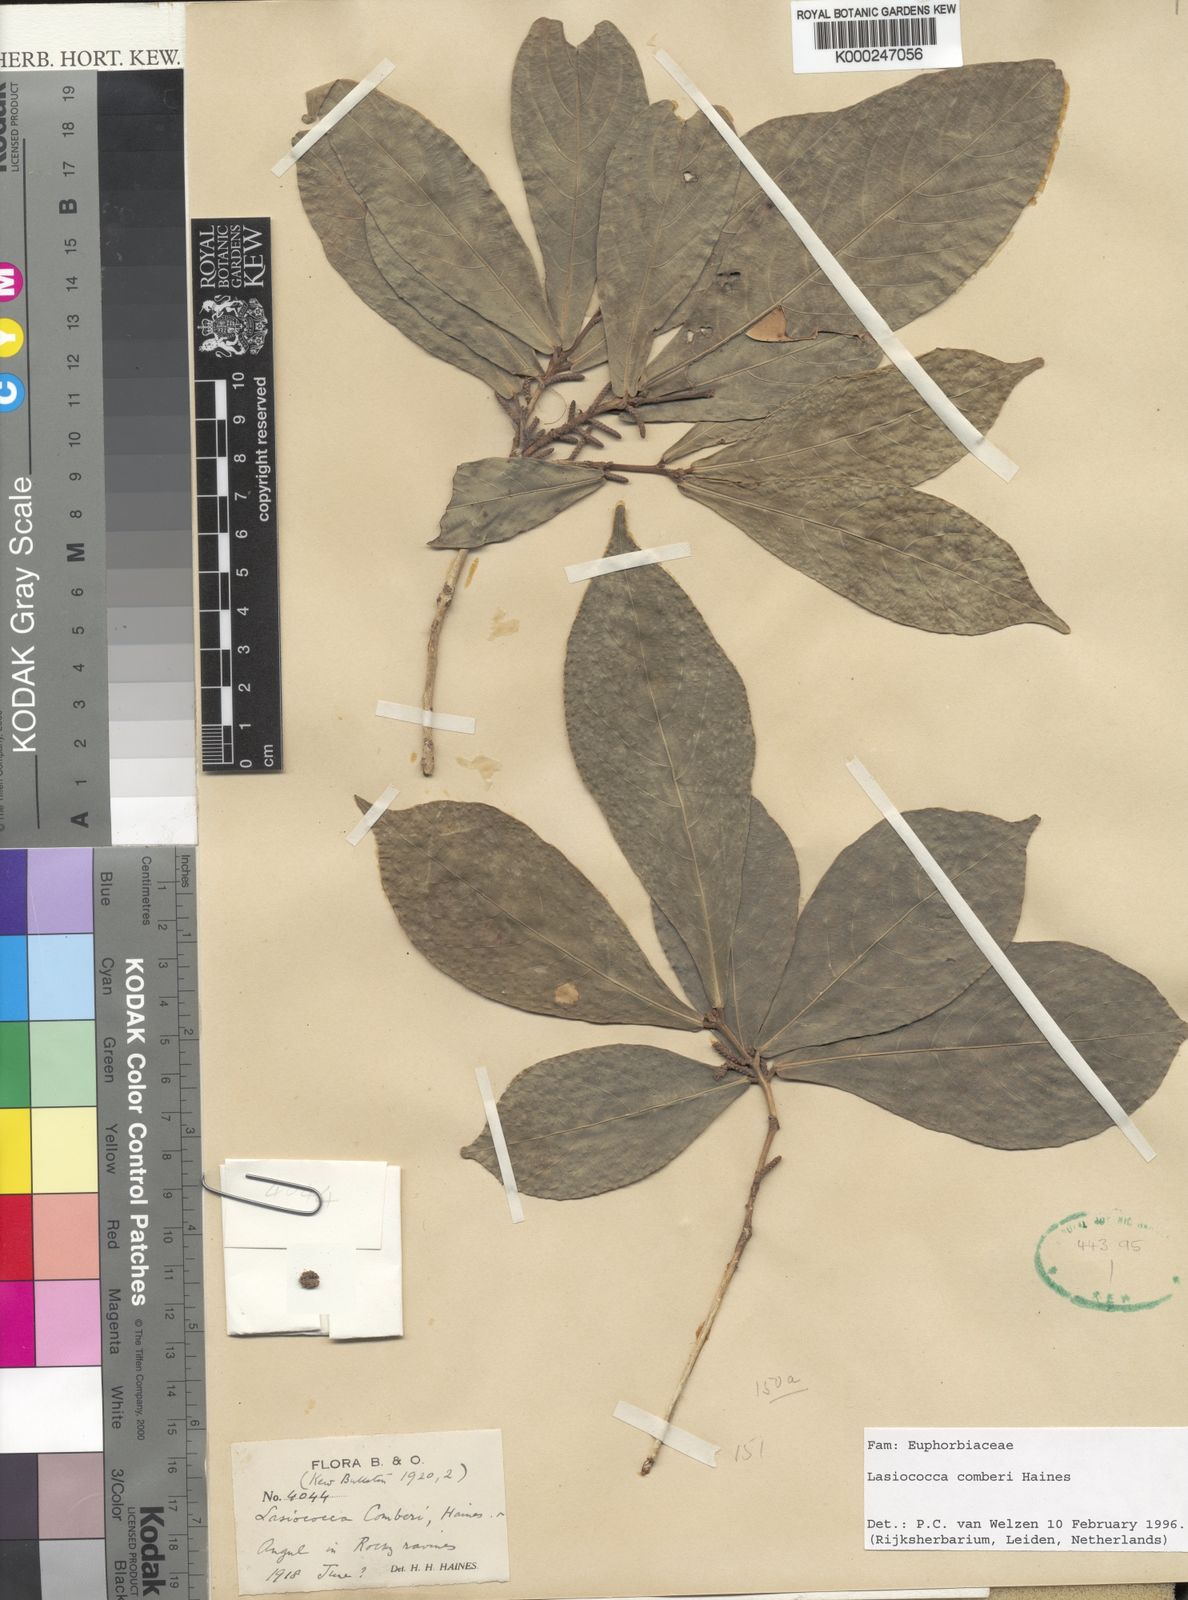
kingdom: Plantae
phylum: Tracheophyta
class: Magnoliopsida
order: Malpighiales
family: Euphorbiaceae
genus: Lasiococca
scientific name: Lasiococca comberi
